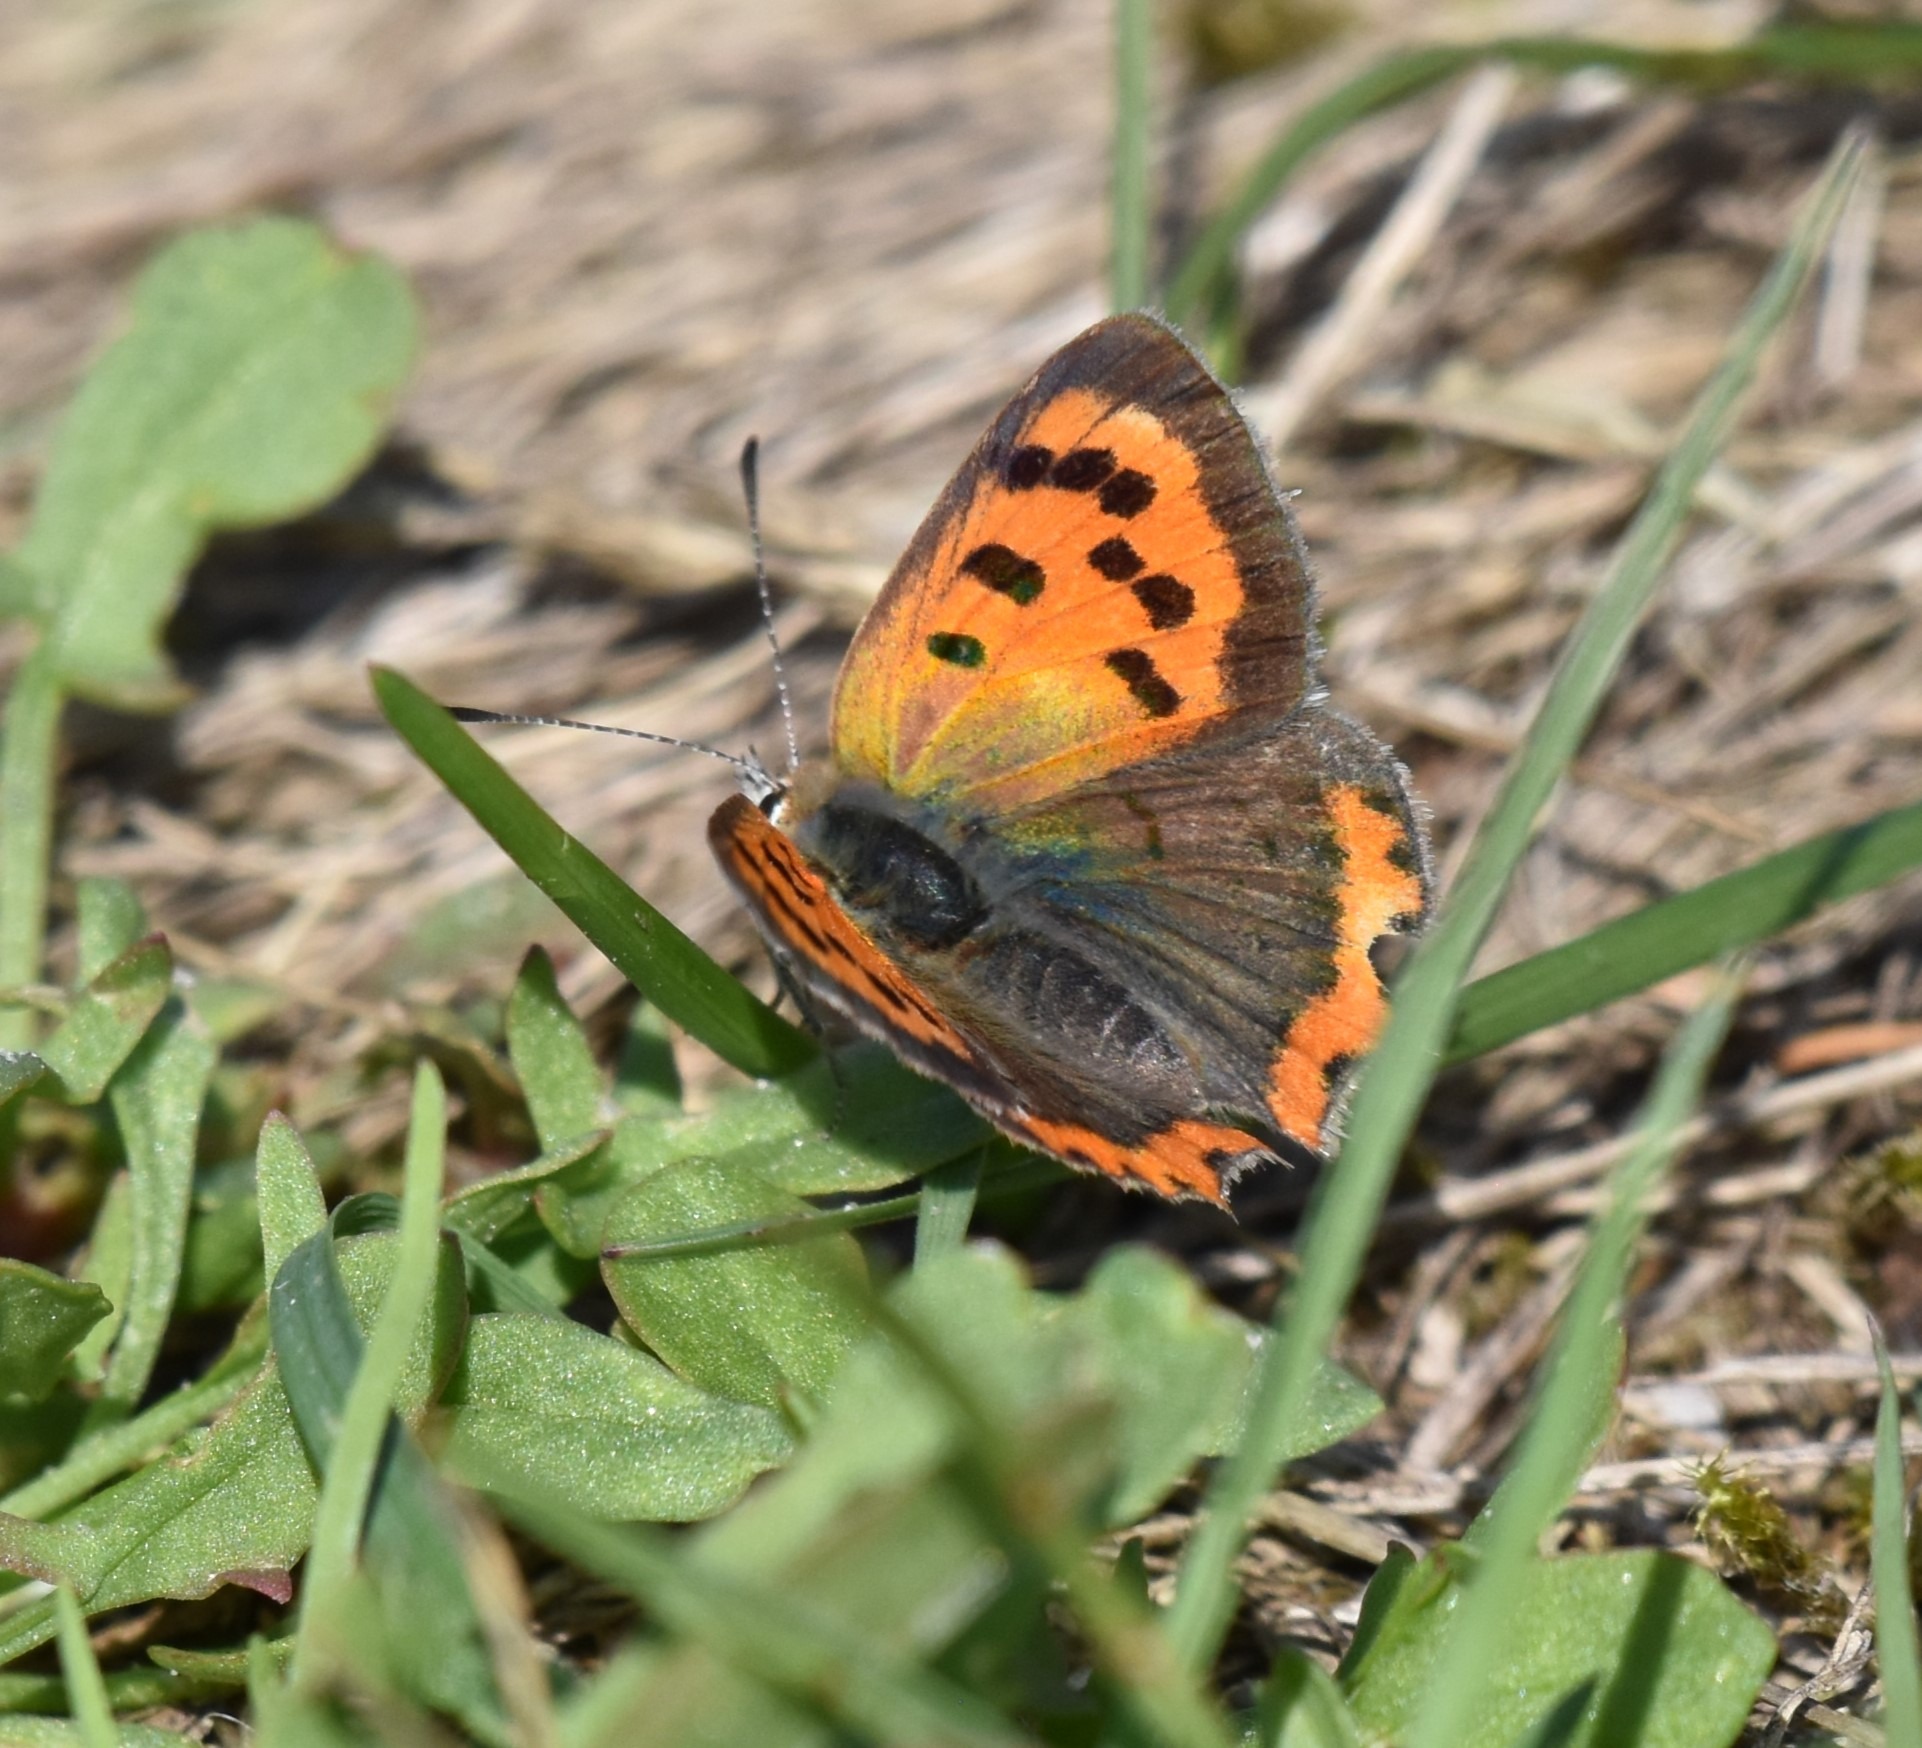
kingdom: Animalia
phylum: Arthropoda
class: Insecta
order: Lepidoptera
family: Lycaenidae
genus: Lycaena
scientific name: Lycaena phlaeas
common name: Lille ildfugl
